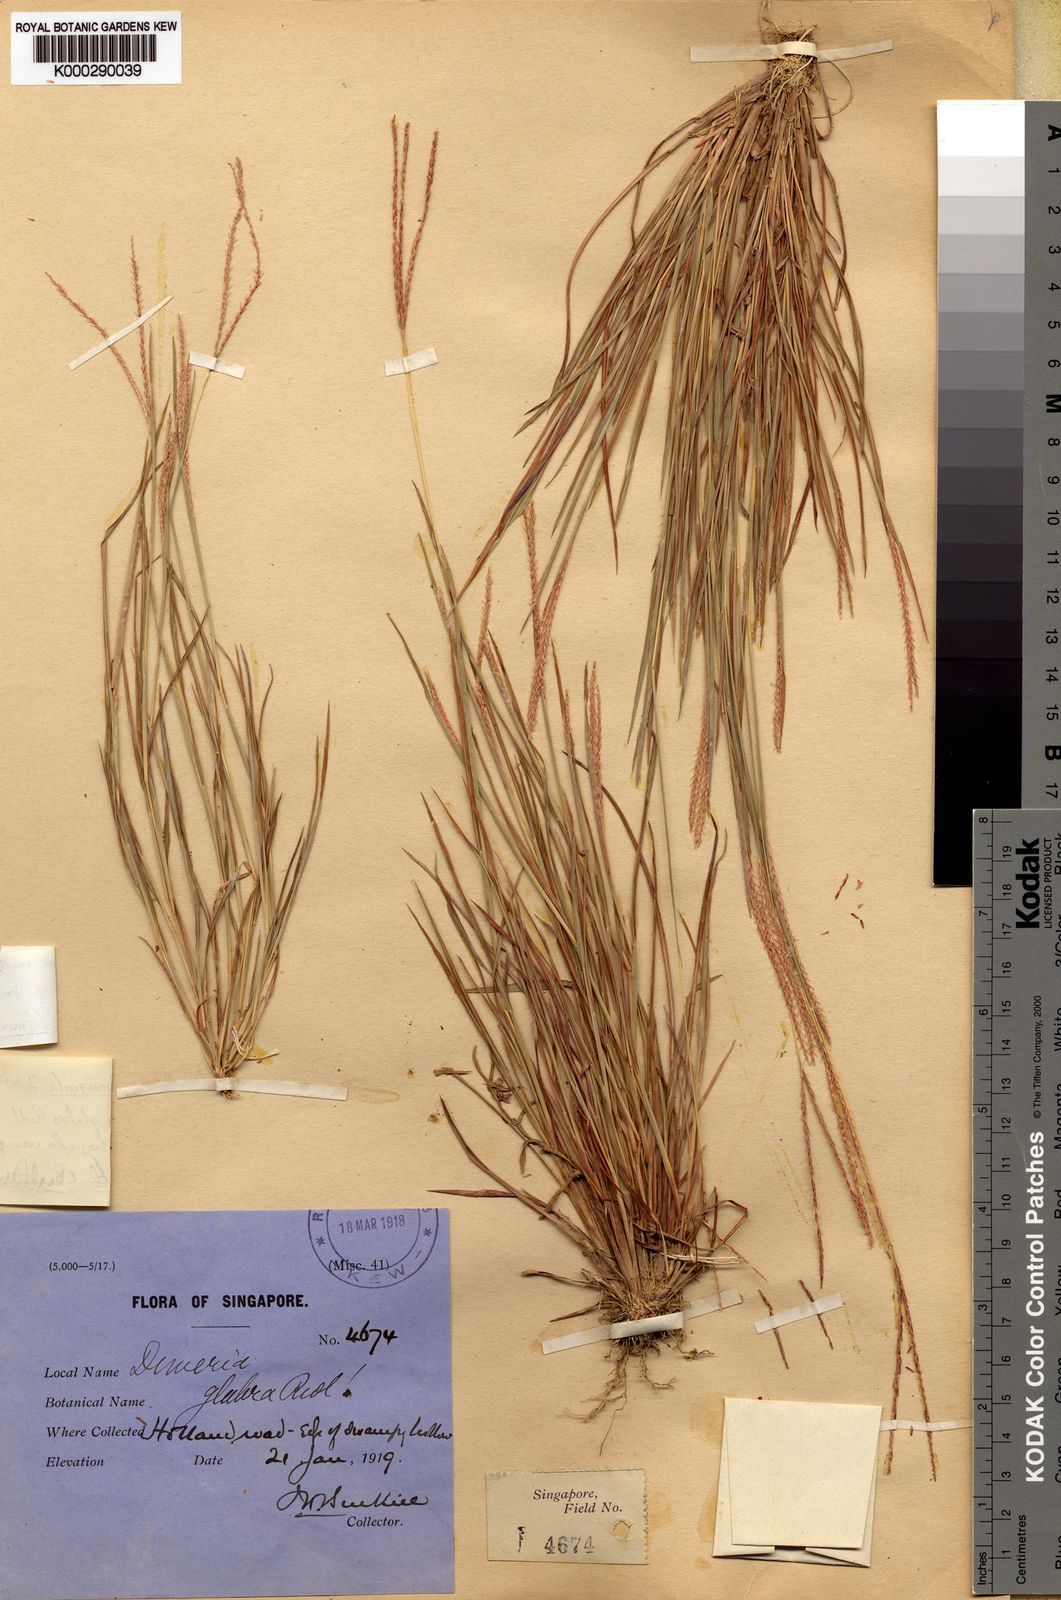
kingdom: Plantae
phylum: Tracheophyta
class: Liliopsida
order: Poales
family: Poaceae
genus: Dimeria
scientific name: Dimeria ornithopoda
